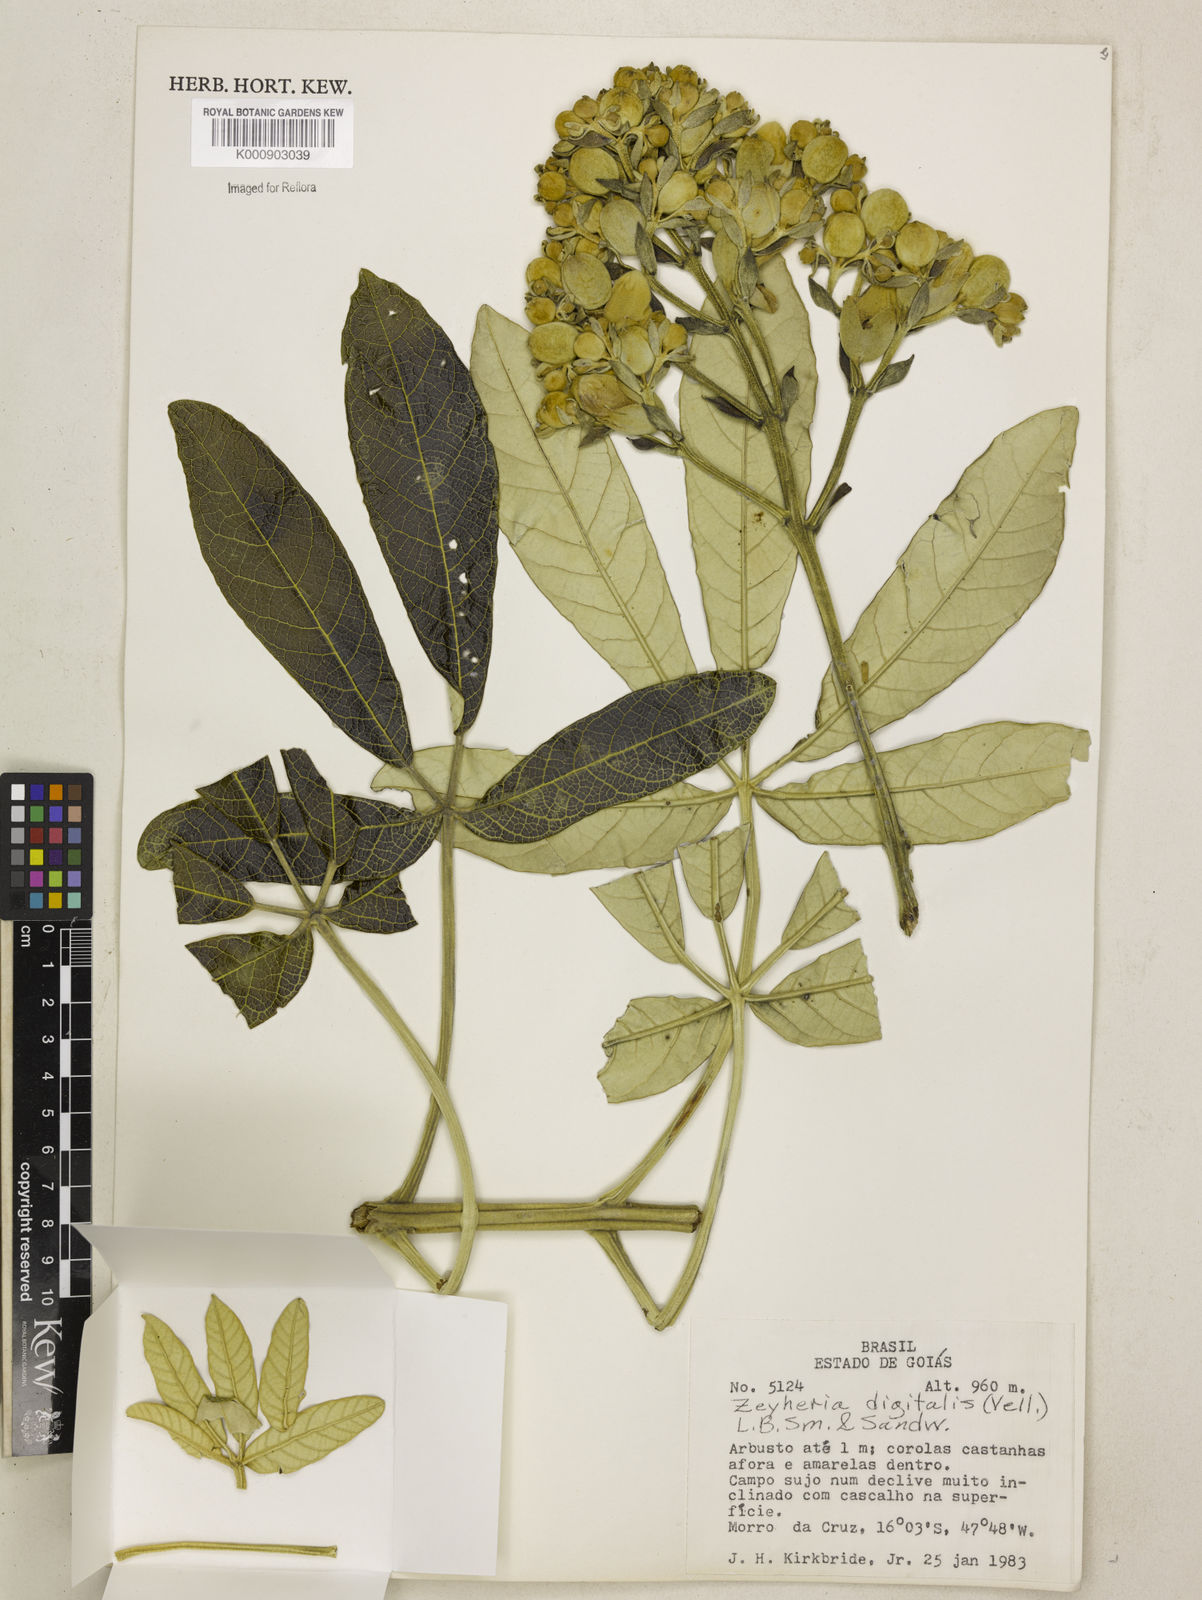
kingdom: Plantae
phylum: Tracheophyta
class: Magnoliopsida
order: Lamiales
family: Bignoniaceae
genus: Zeyheria
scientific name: Zeyheria
